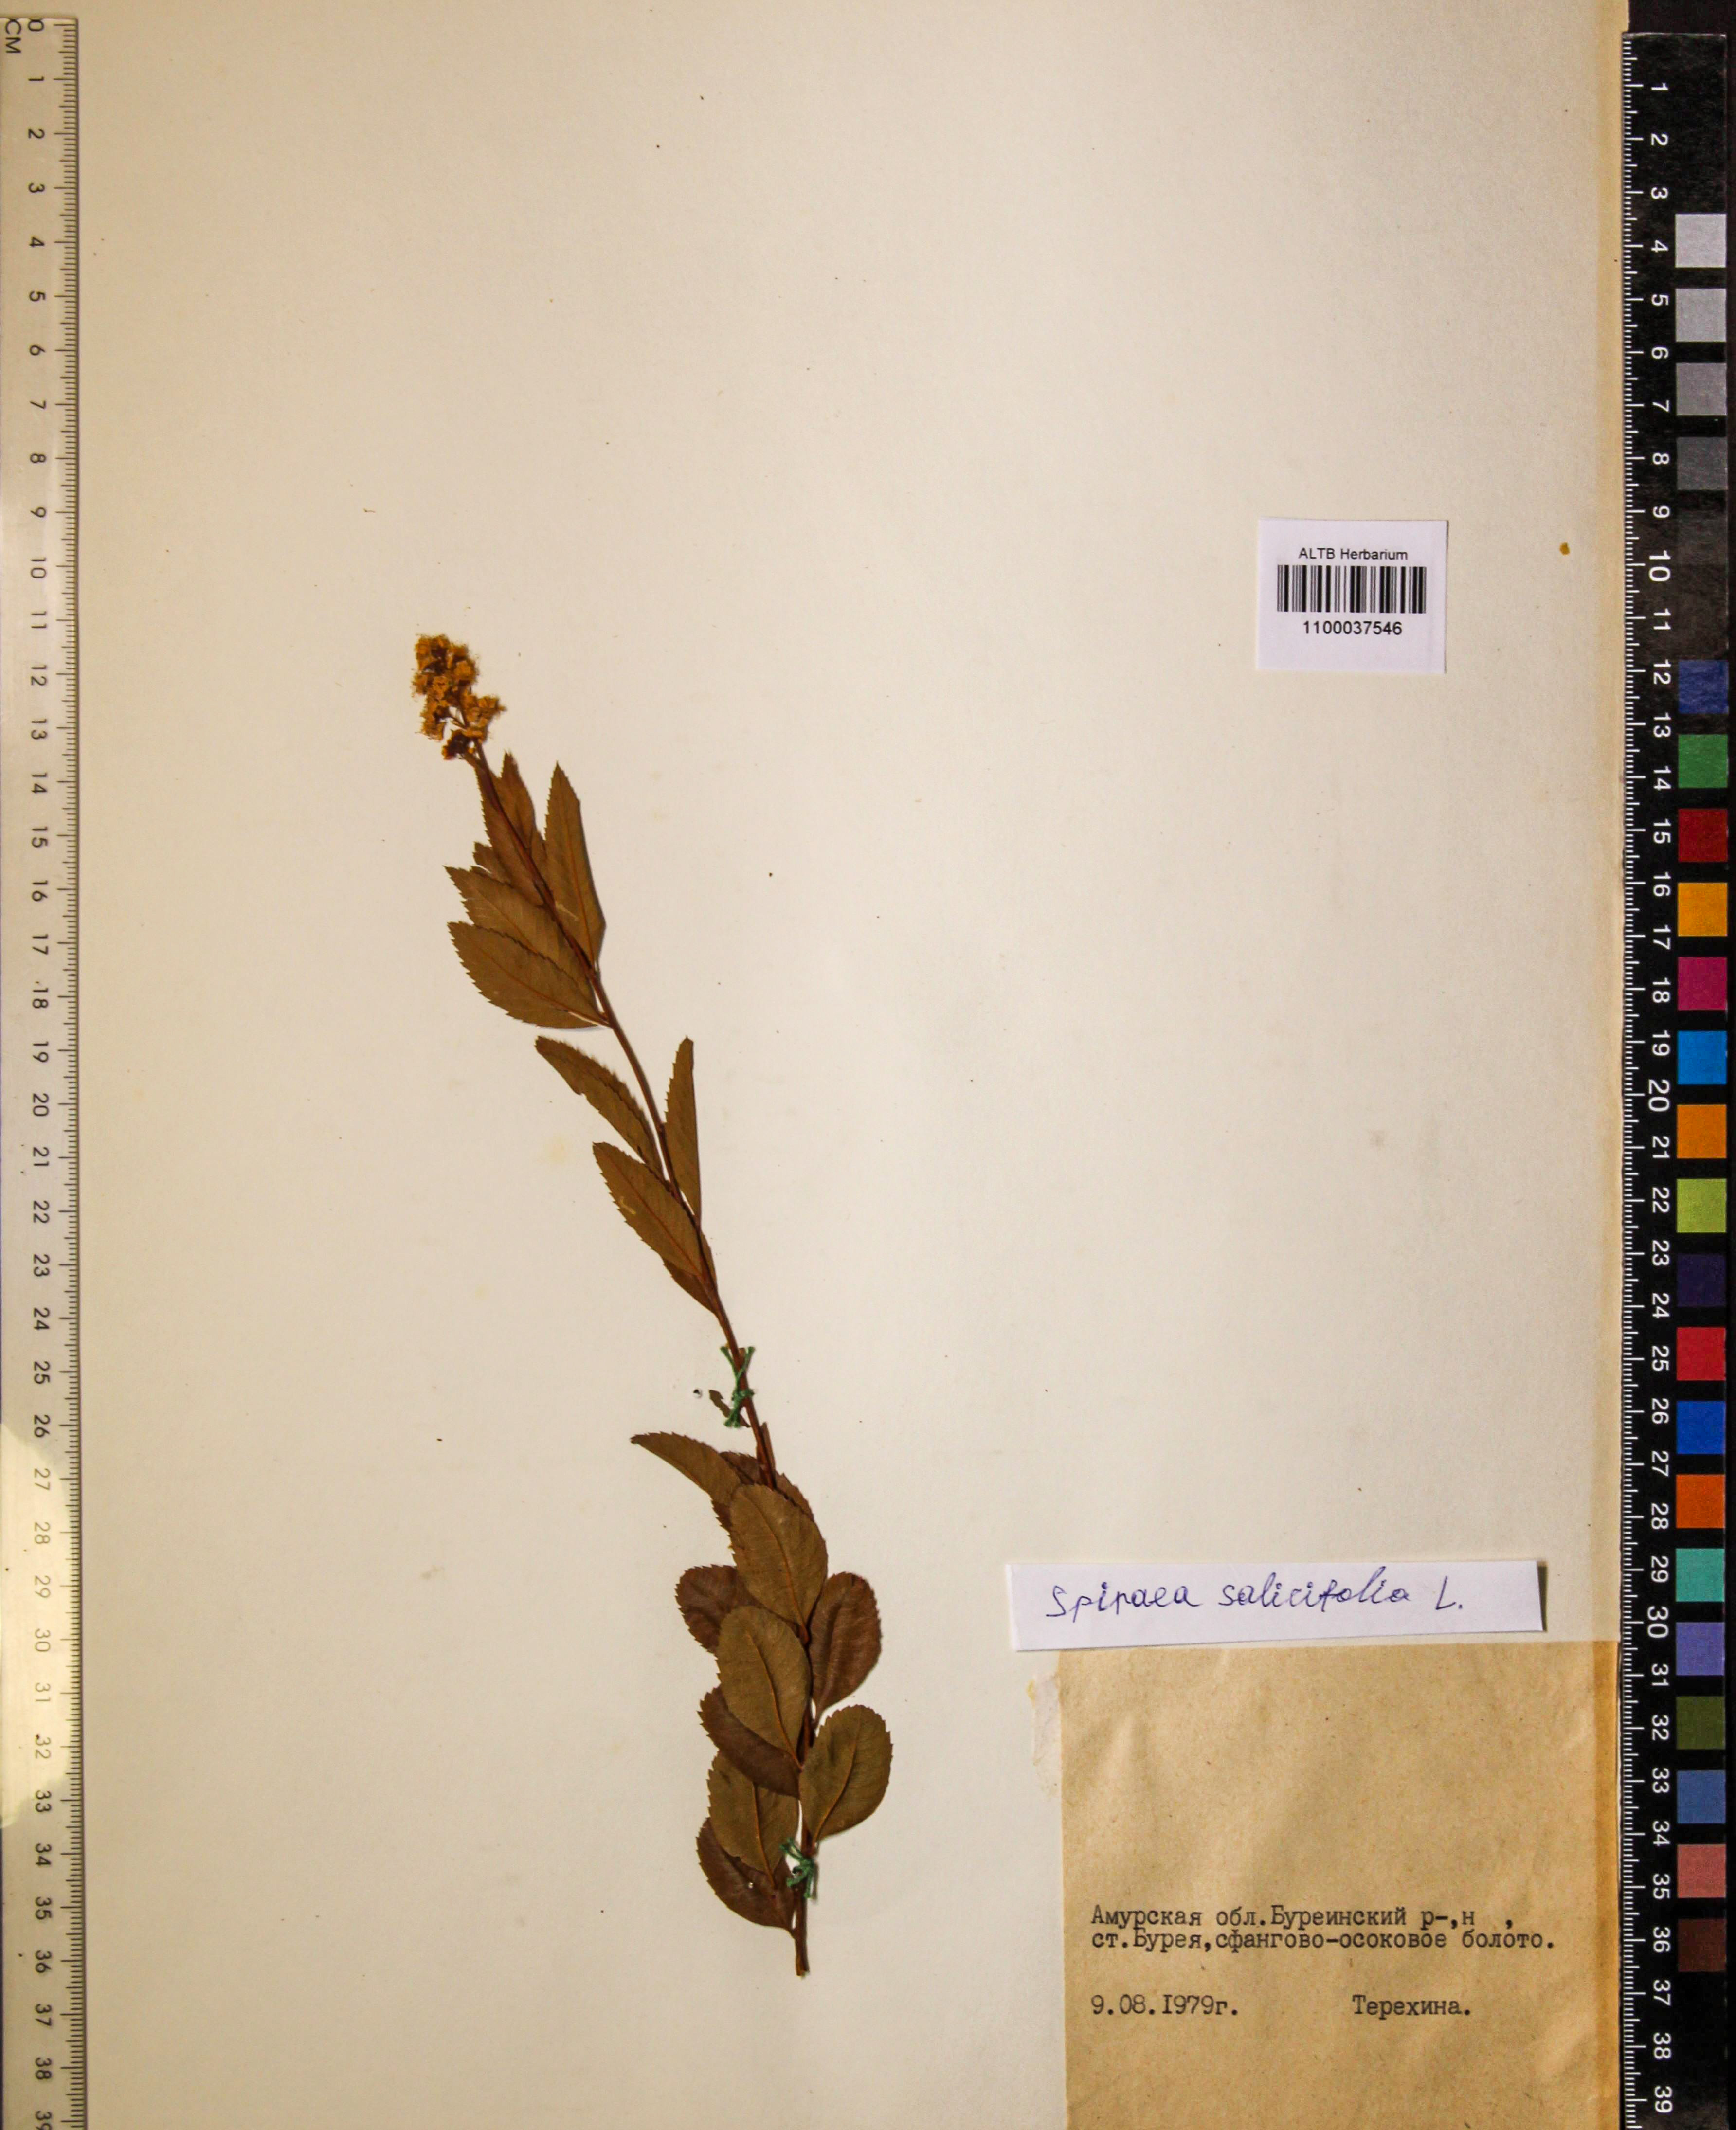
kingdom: Plantae
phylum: Tracheophyta
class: Magnoliopsida
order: Rosales
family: Rosaceae
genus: Spiraea
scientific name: Spiraea salicifolia
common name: Bridewort
